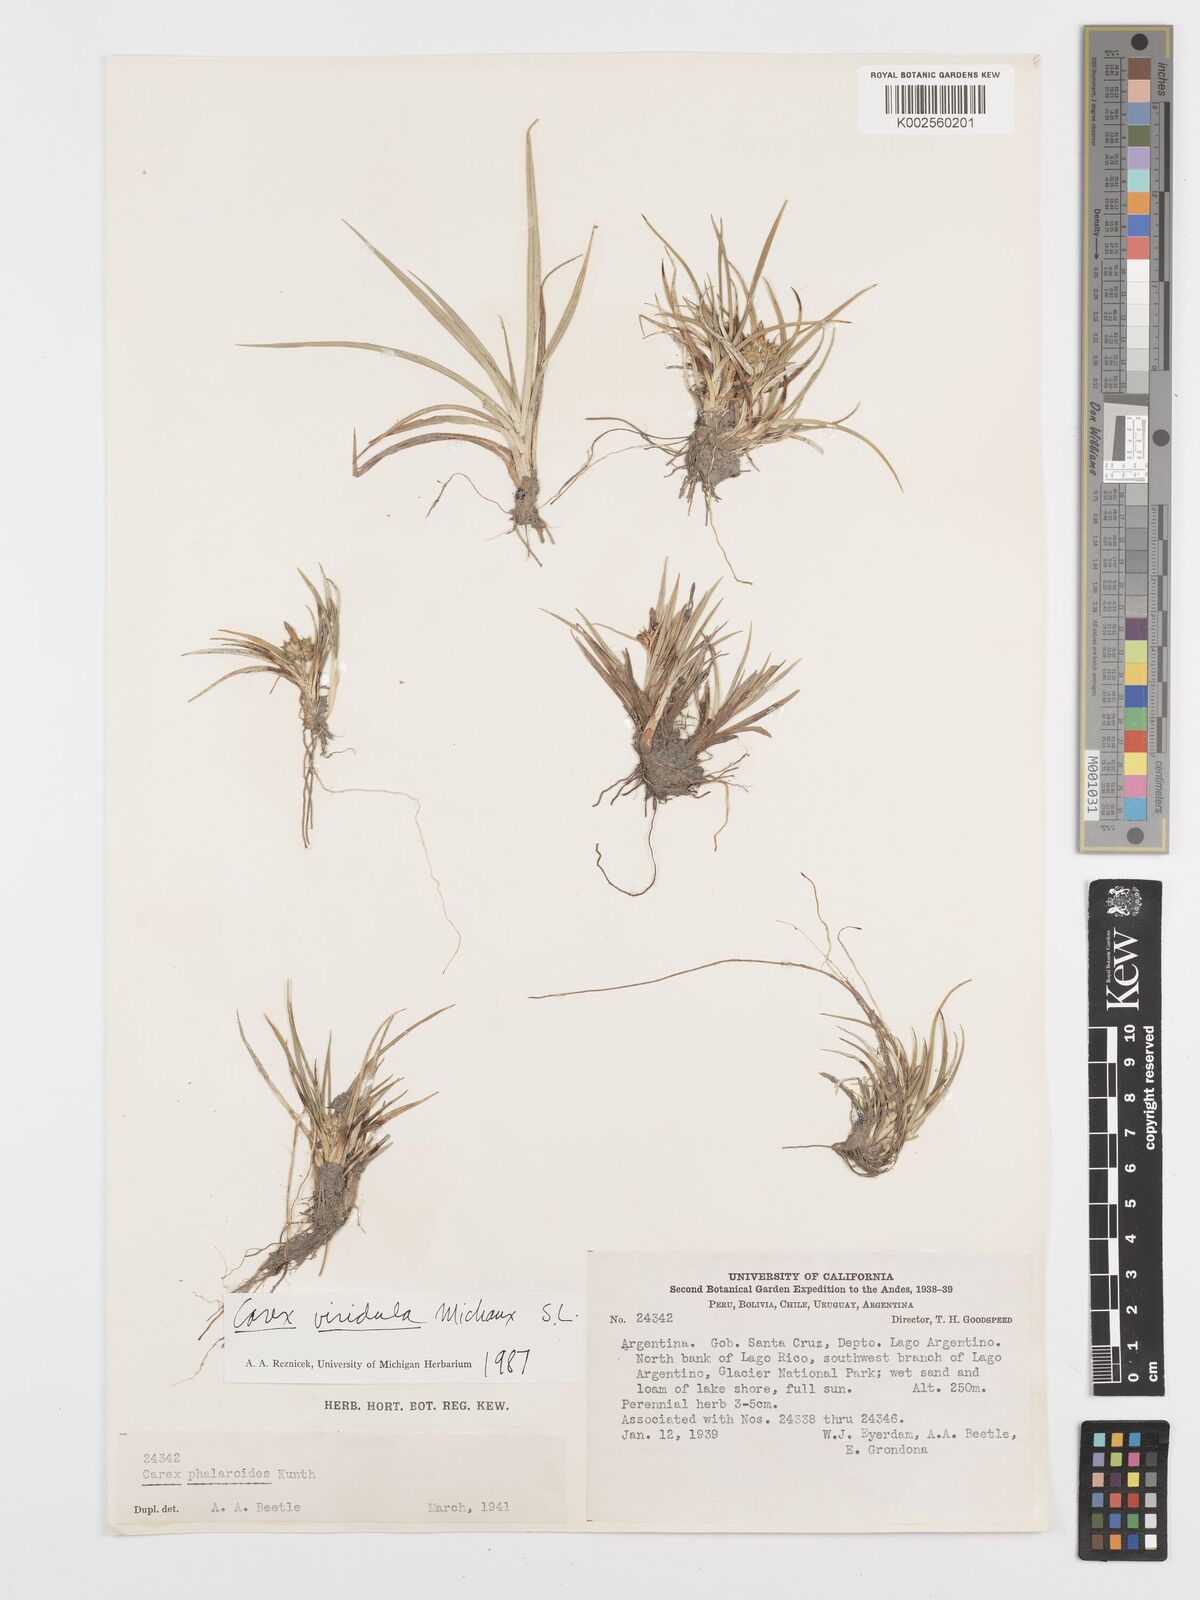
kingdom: Plantae
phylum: Tracheophyta
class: Liliopsida
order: Poales
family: Cyperaceae
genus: Carex
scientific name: Carex oederi
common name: Common & small-fruited yellow-sedge
